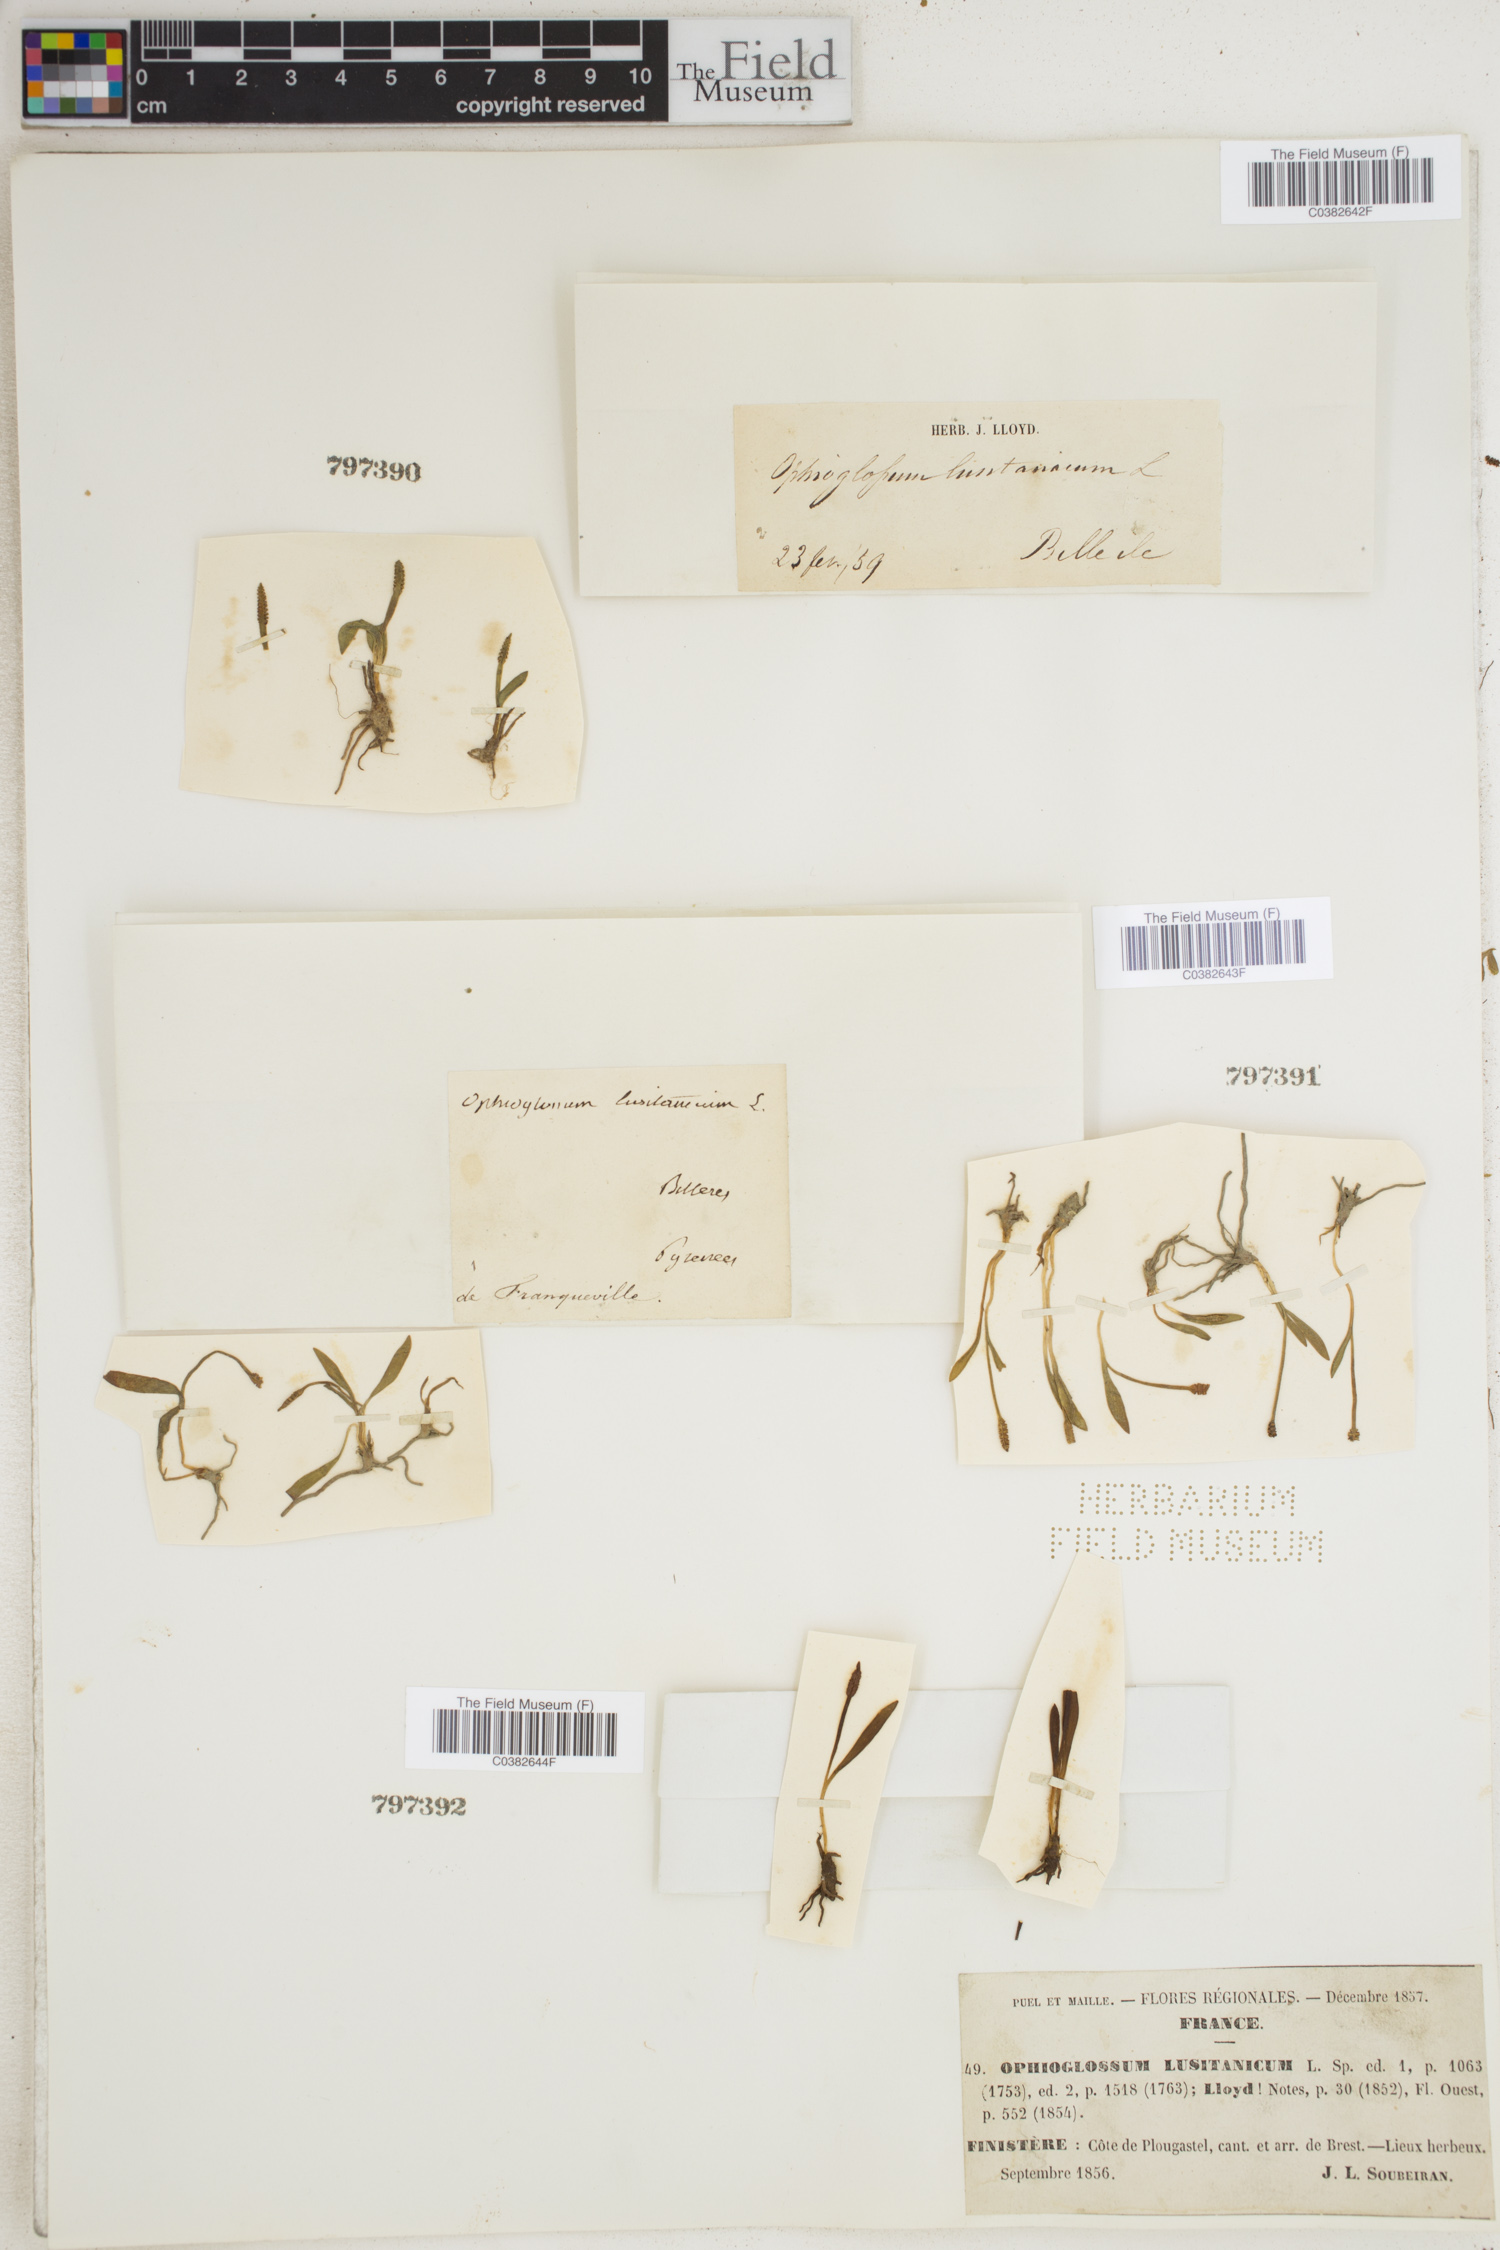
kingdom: Plantae
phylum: Tracheophyta
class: Polypodiopsida
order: Ophioglossales
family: Ophioglossaceae
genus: Ophioglossum
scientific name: Ophioglossum lusitanicum
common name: Least adder's-tongue
